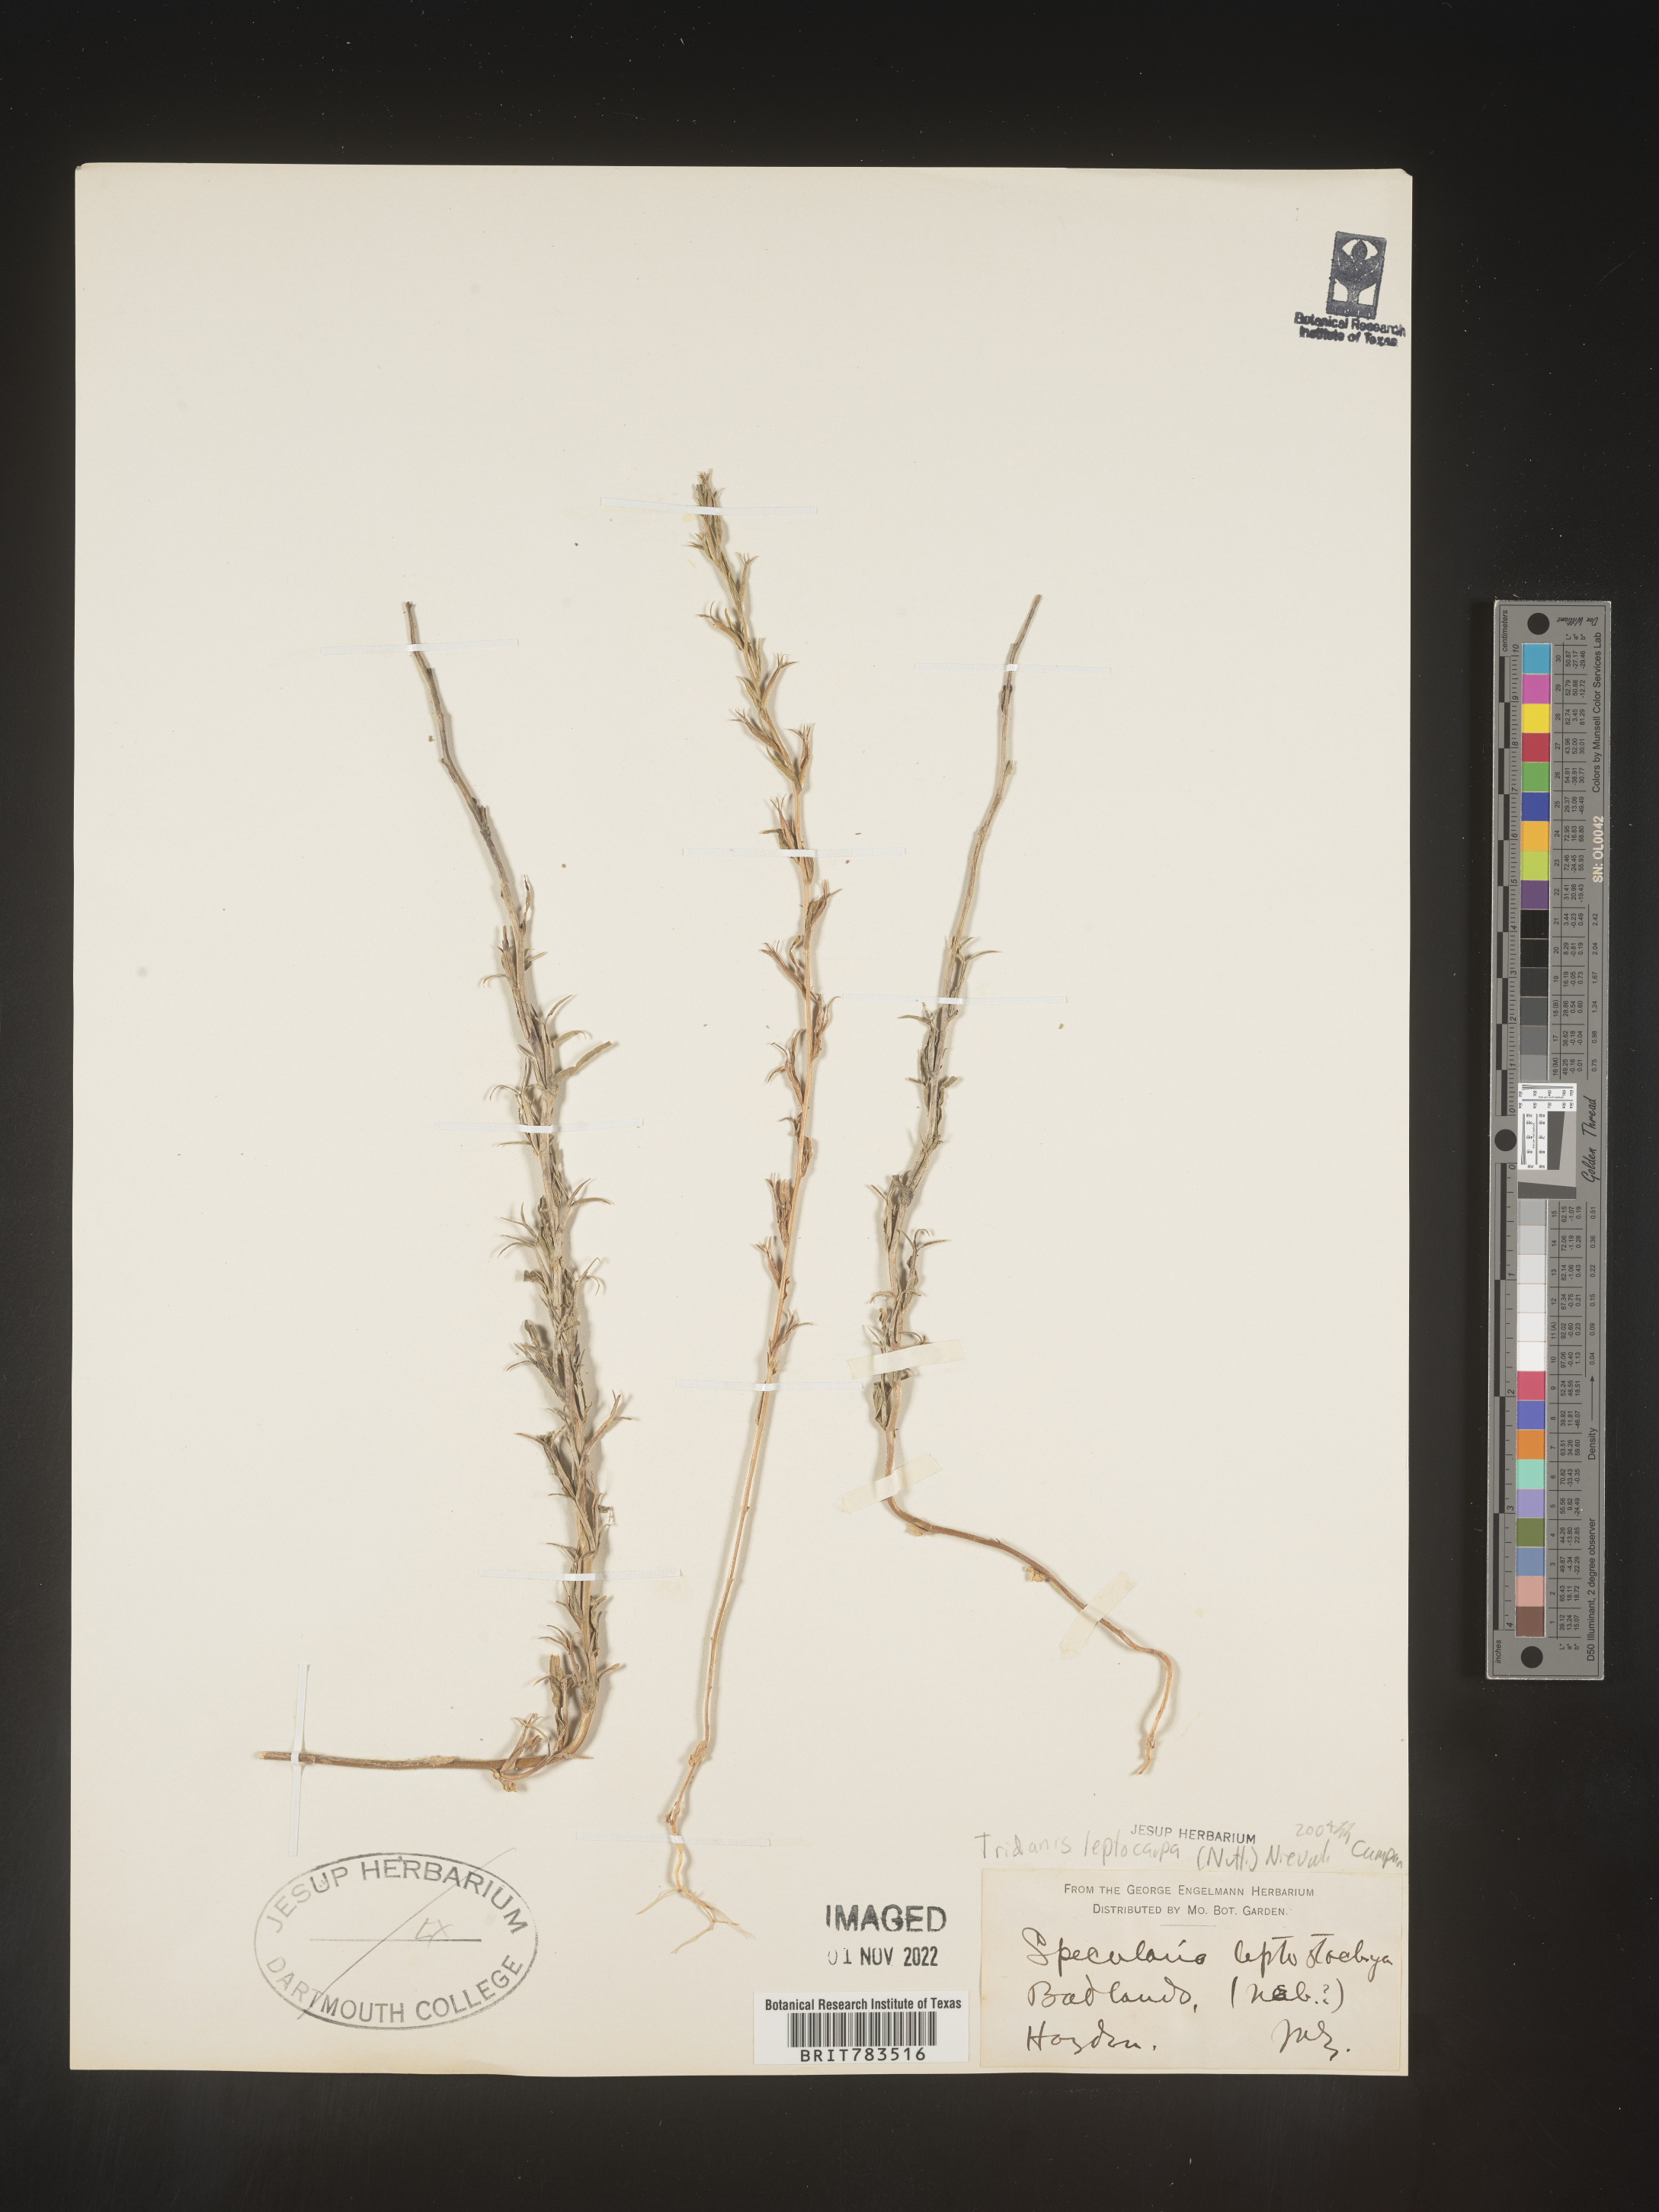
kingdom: Plantae
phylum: Tracheophyta
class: Magnoliopsida
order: Asterales
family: Campanulaceae
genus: Triodanis
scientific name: Triodanis leptocarpa
